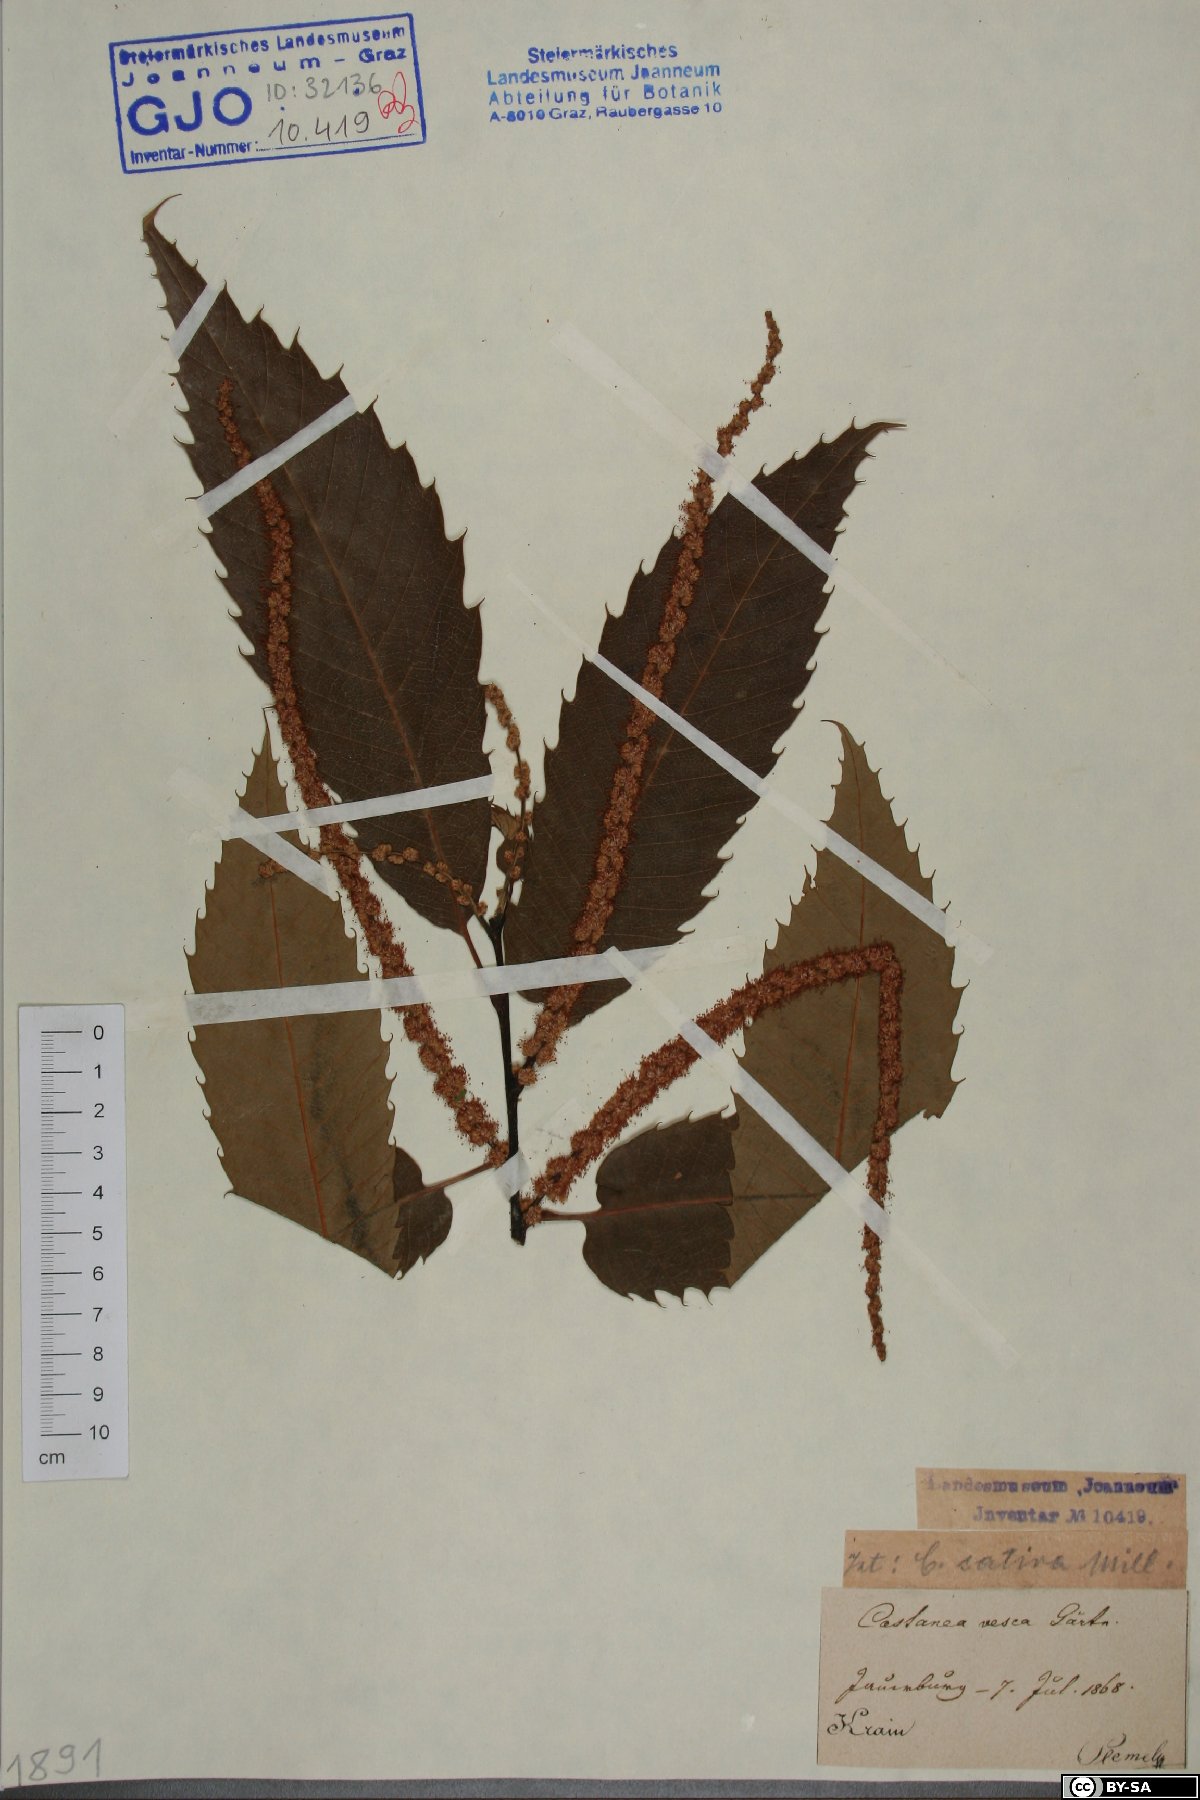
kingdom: Plantae
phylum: Tracheophyta
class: Magnoliopsida
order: Fagales
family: Fagaceae
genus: Castanea
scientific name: Castanea sativa
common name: Sweet chestnut
